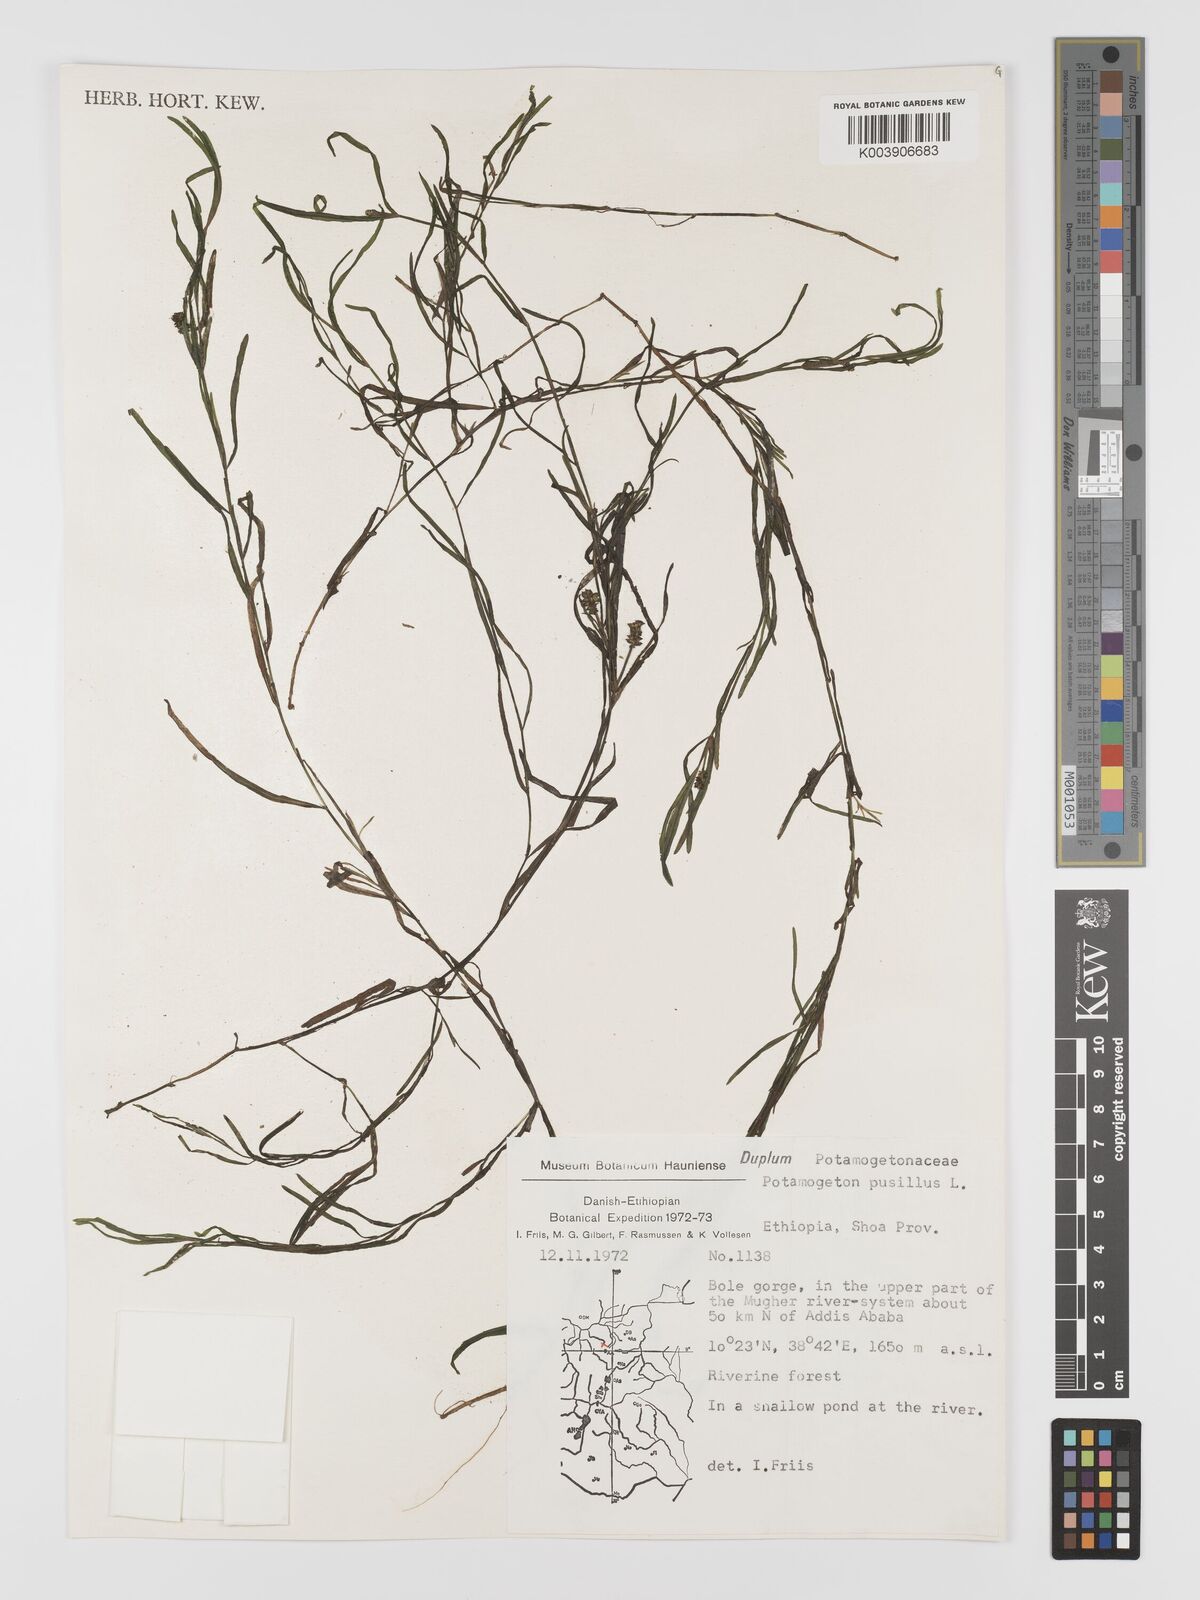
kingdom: Plantae
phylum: Tracheophyta
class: Liliopsida
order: Alismatales
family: Potamogetonaceae
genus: Potamogeton
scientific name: Potamogeton parvifolius
